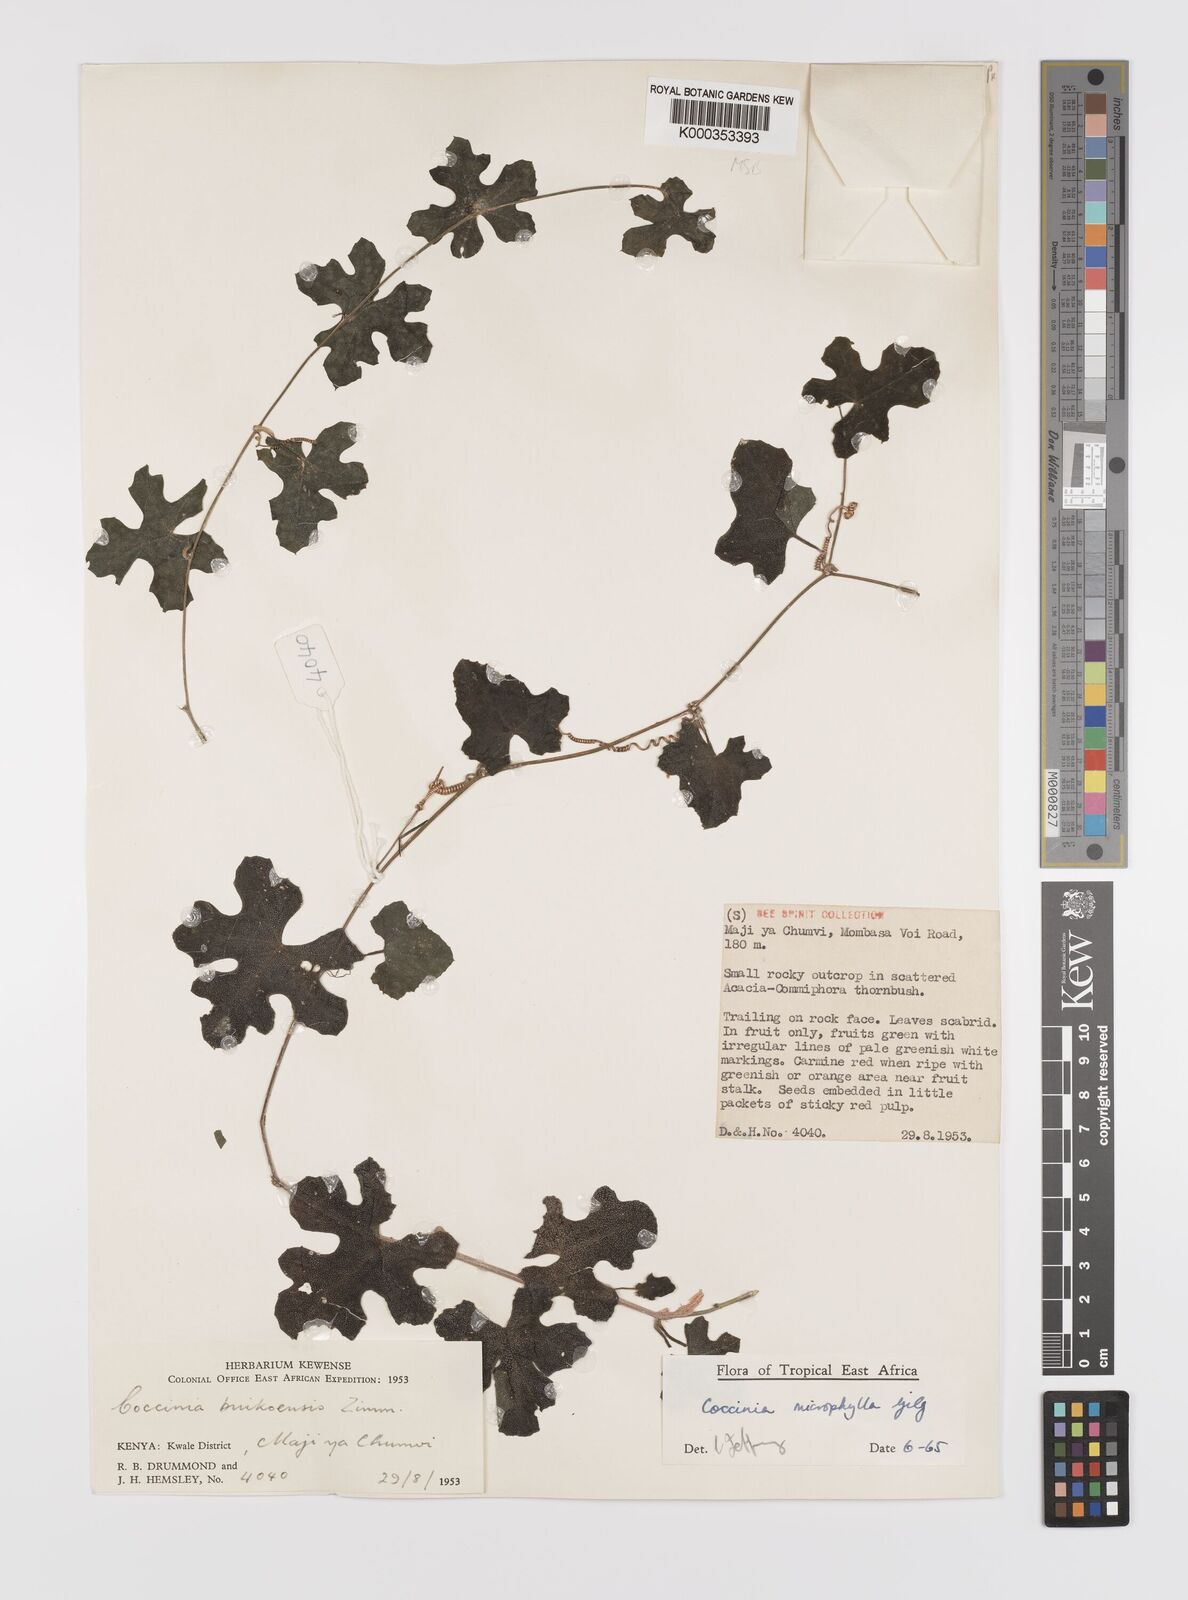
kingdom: Plantae
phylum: Tracheophyta
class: Magnoliopsida
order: Cucurbitales
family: Cucurbitaceae
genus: Coccinia
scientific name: Coccinia microphylla
